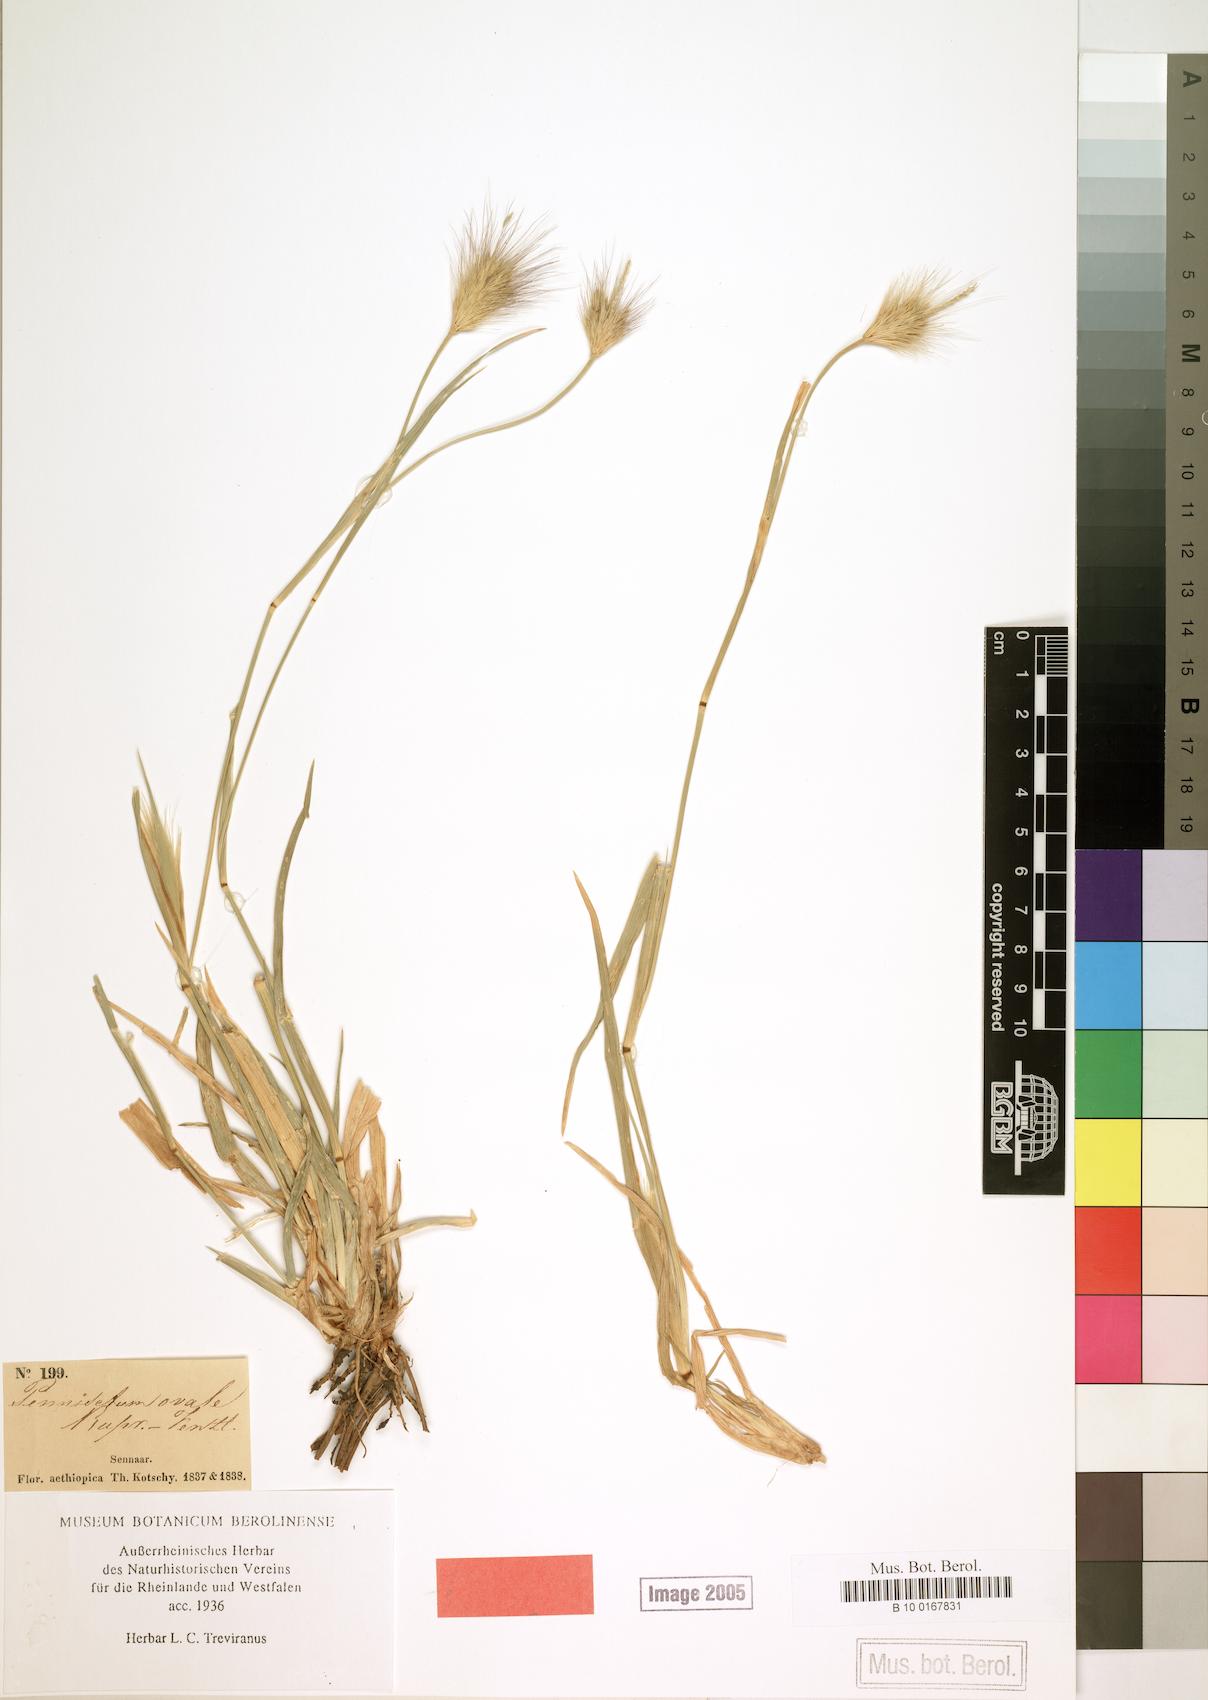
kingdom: Plantae
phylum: Tracheophyta
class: Liliopsida
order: Poales
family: Poaceae
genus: Cenchrus
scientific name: Cenchrus ramosus
